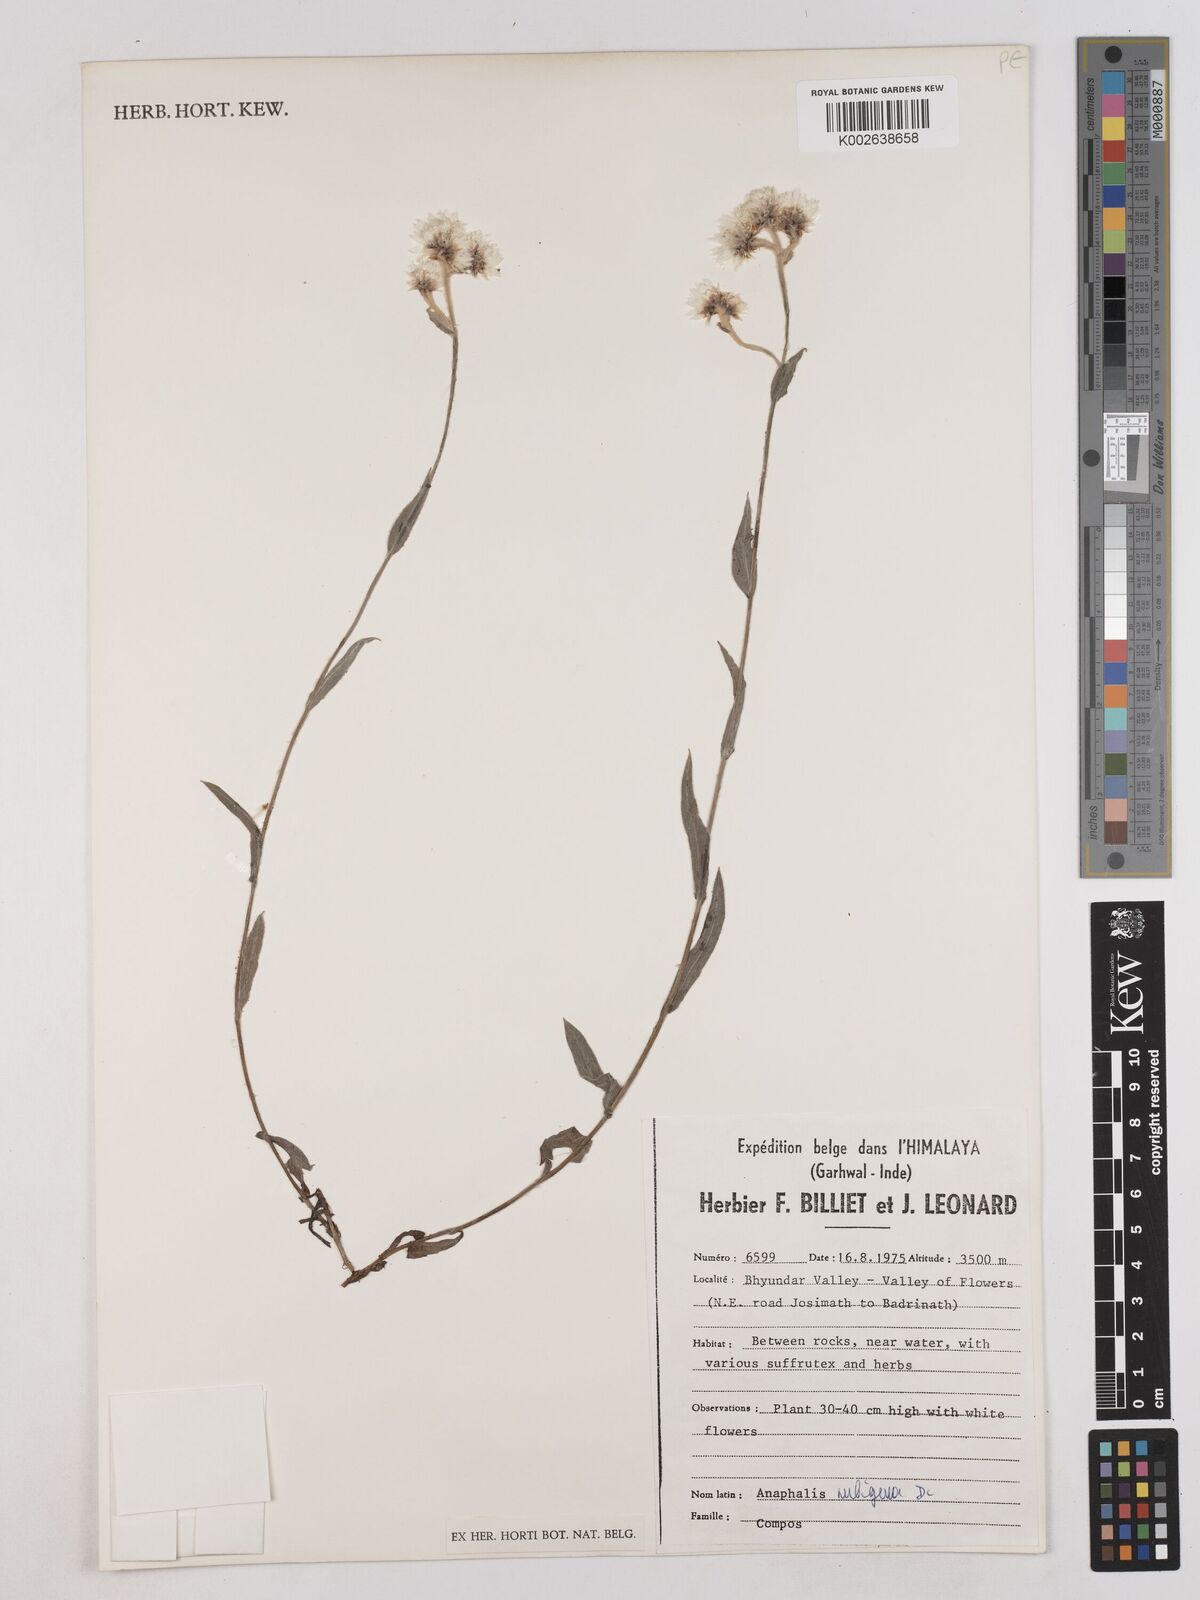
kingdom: Plantae
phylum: Tracheophyta
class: Magnoliopsida
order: Asterales
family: Asteraceae
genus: Anaphalioides
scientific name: Anaphalioides trinervis
